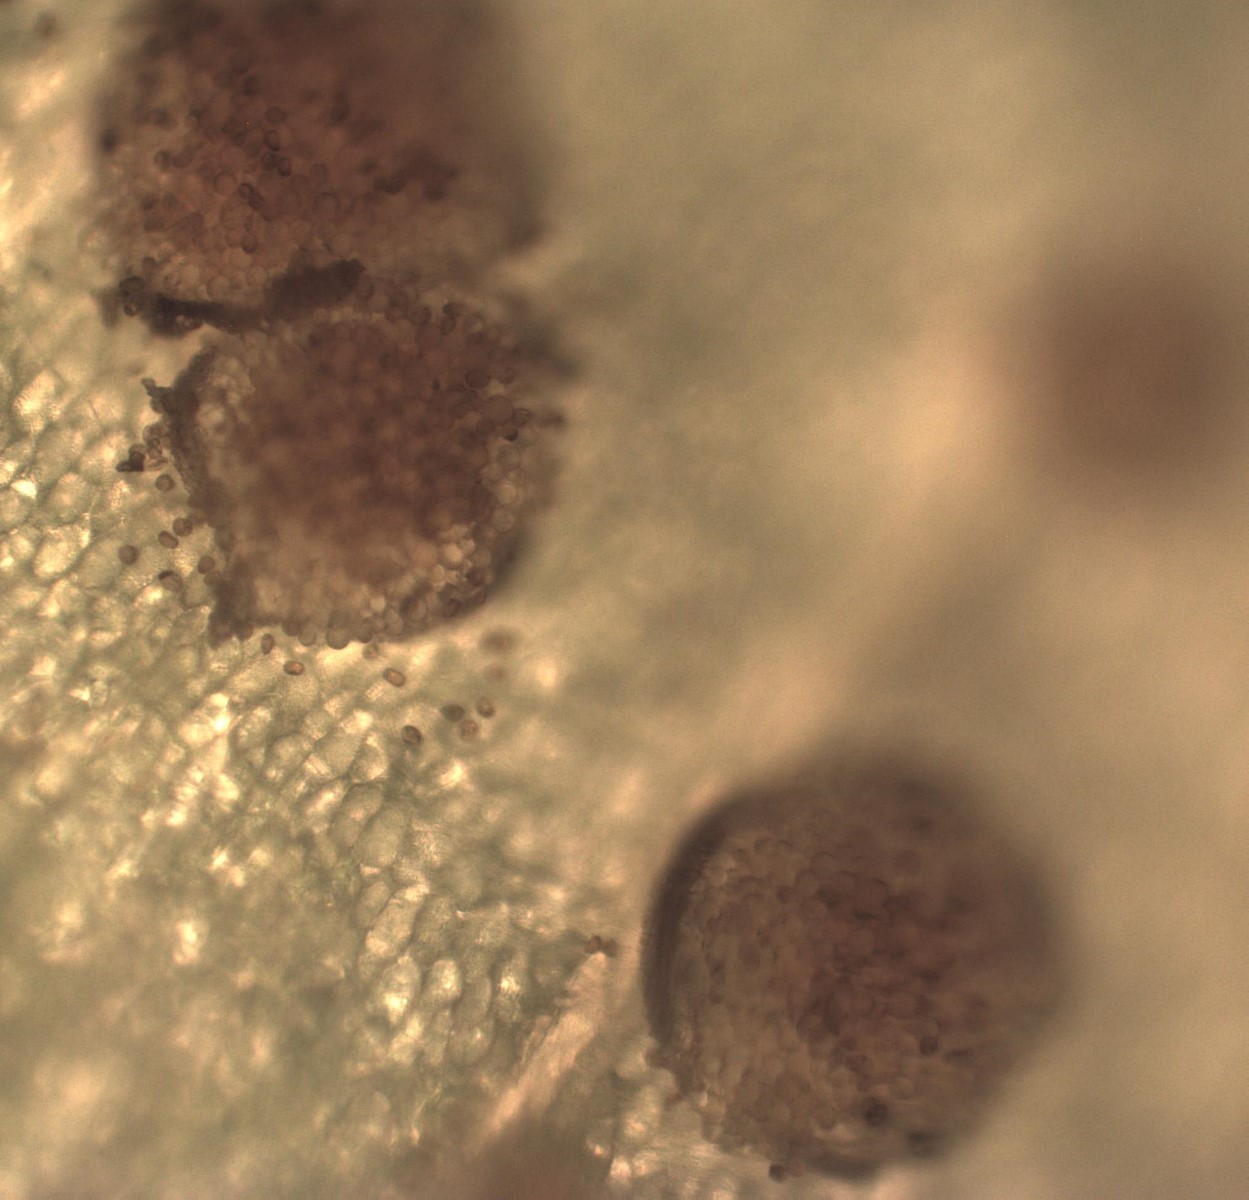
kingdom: Fungi
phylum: Basidiomycota
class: Pucciniomycetes
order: Pucciniales
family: Melampsoraceae
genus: Melampsora
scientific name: Melampsora euphorbiae
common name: vortemælk-skorperust
